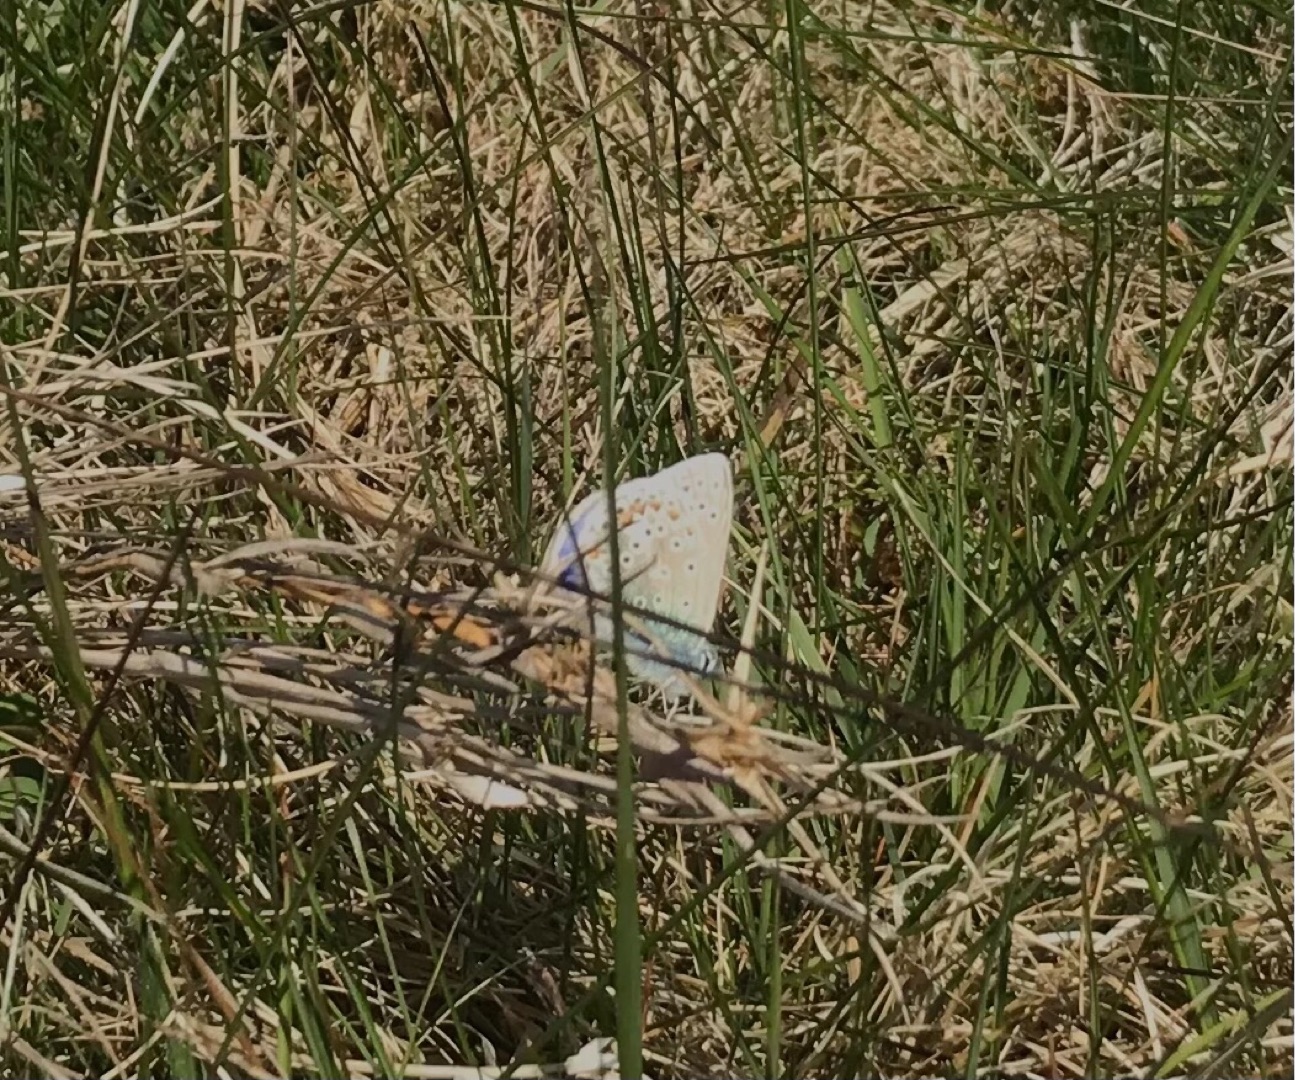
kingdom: Animalia
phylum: Arthropoda
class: Insecta
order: Lepidoptera
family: Lycaenidae
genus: Polyommatus
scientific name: Polyommatus icarus
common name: Almindelig blåfugl
